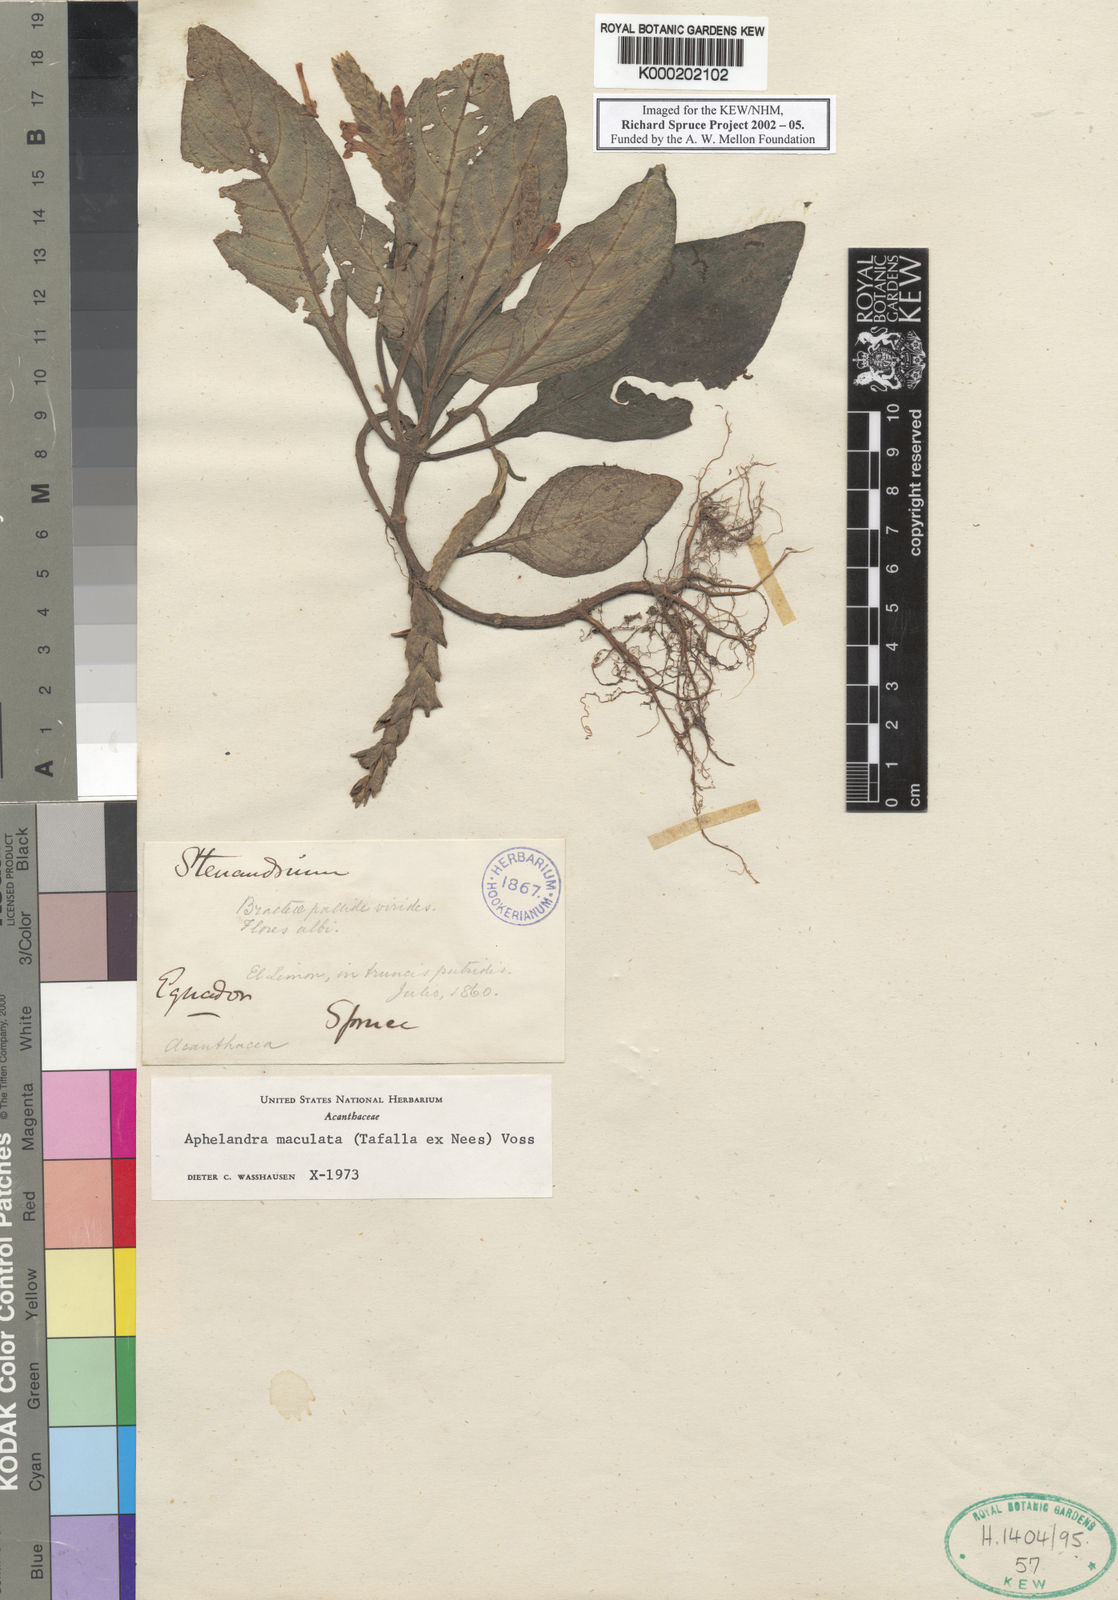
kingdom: Plantae
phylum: Tracheophyta
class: Magnoliopsida
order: Lamiales
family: Acanthaceae
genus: Aphelandra
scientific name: Aphelandra maculata
